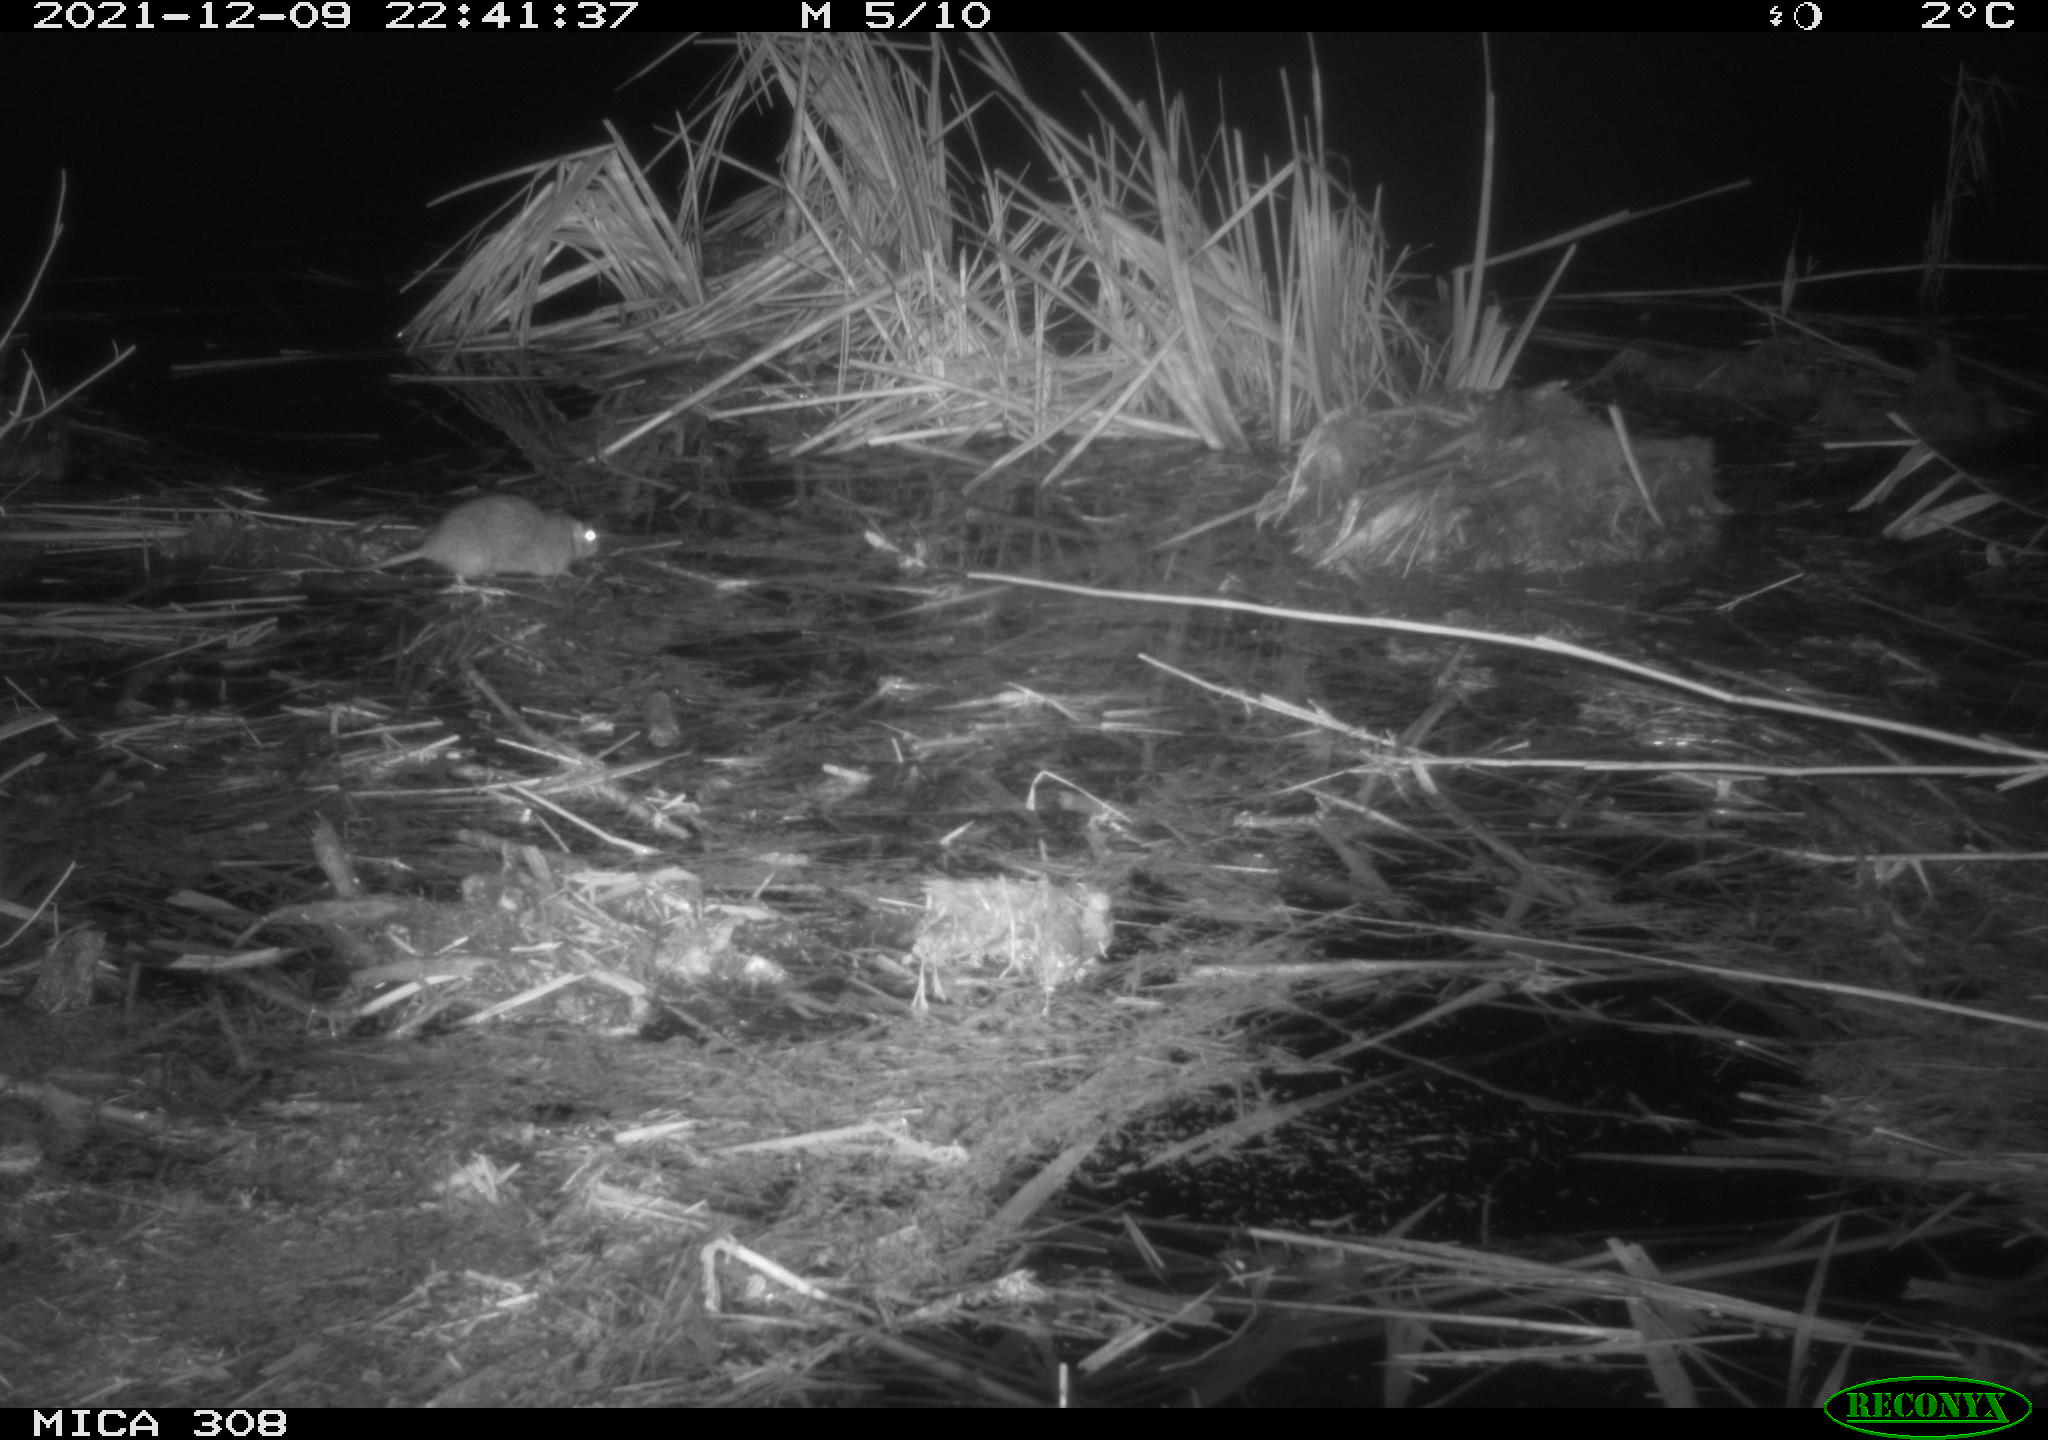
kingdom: Animalia
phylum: Chordata
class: Mammalia
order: Rodentia
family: Muridae
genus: Rattus
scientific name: Rattus norvegicus
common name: Brown rat
